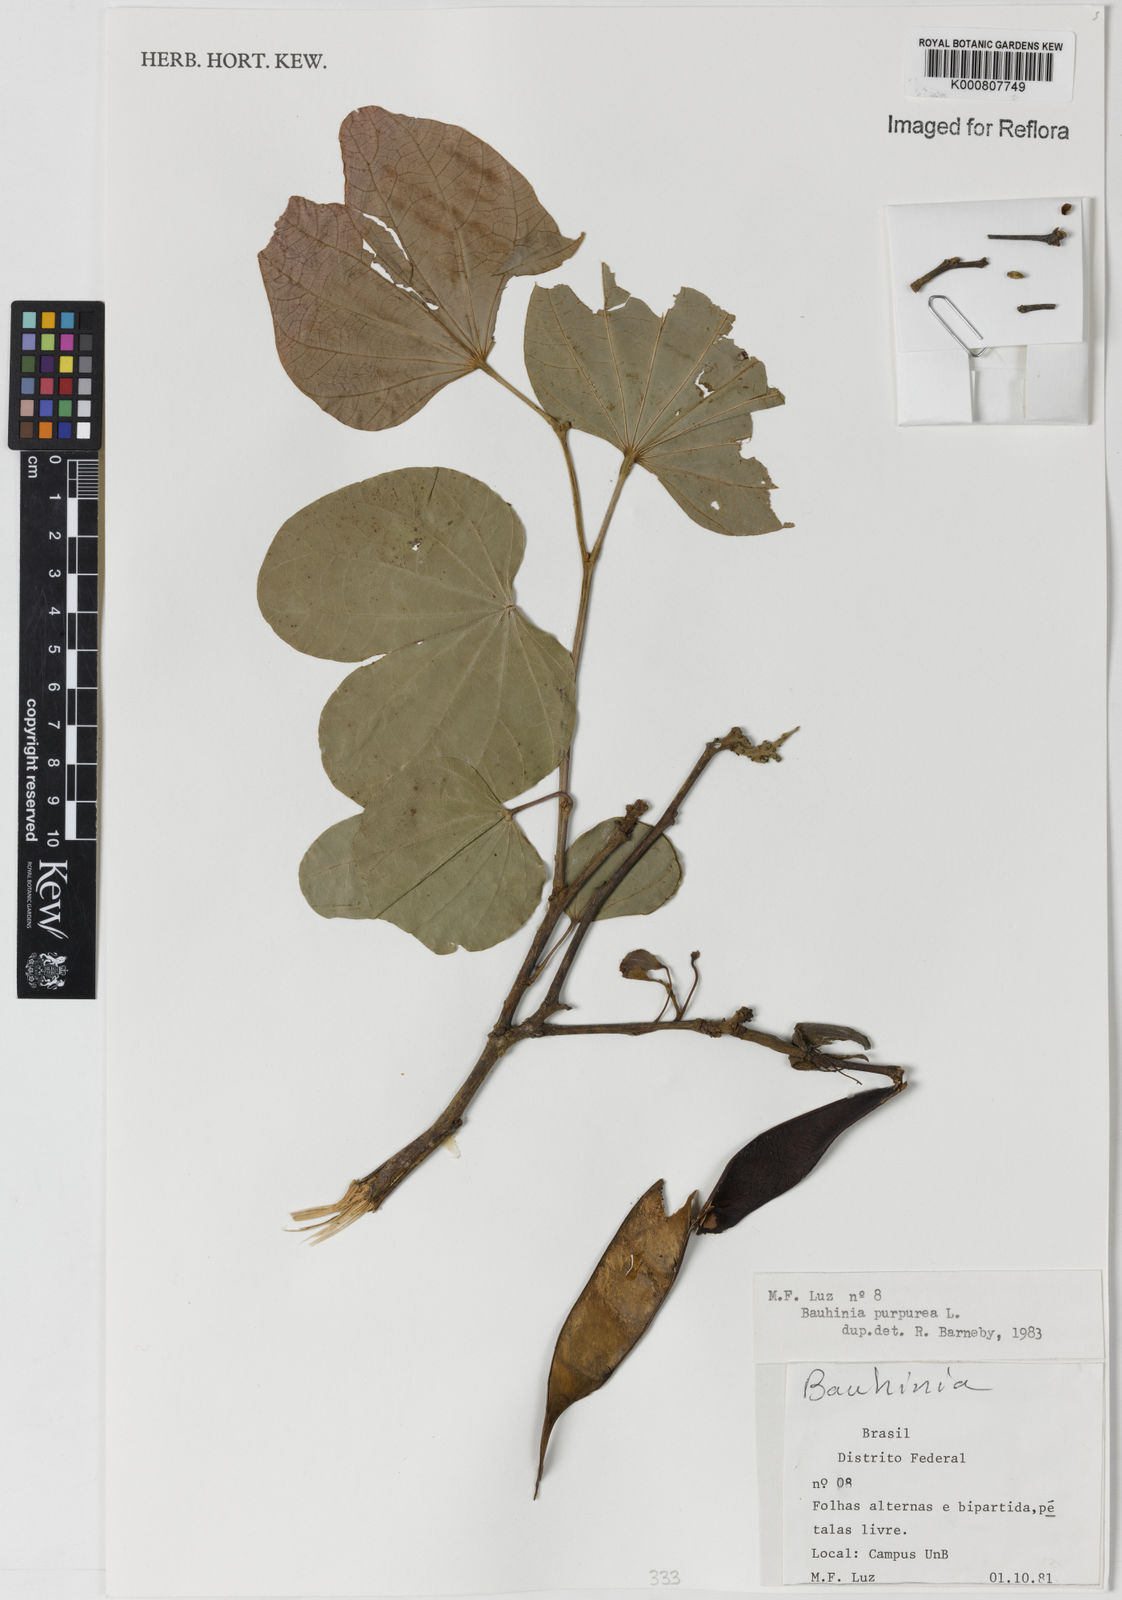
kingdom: Plantae
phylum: Tracheophyta
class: Magnoliopsida
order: Fabales
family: Fabaceae
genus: Bauhinia
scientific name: Bauhinia purpurea
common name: Butterfly-tree
